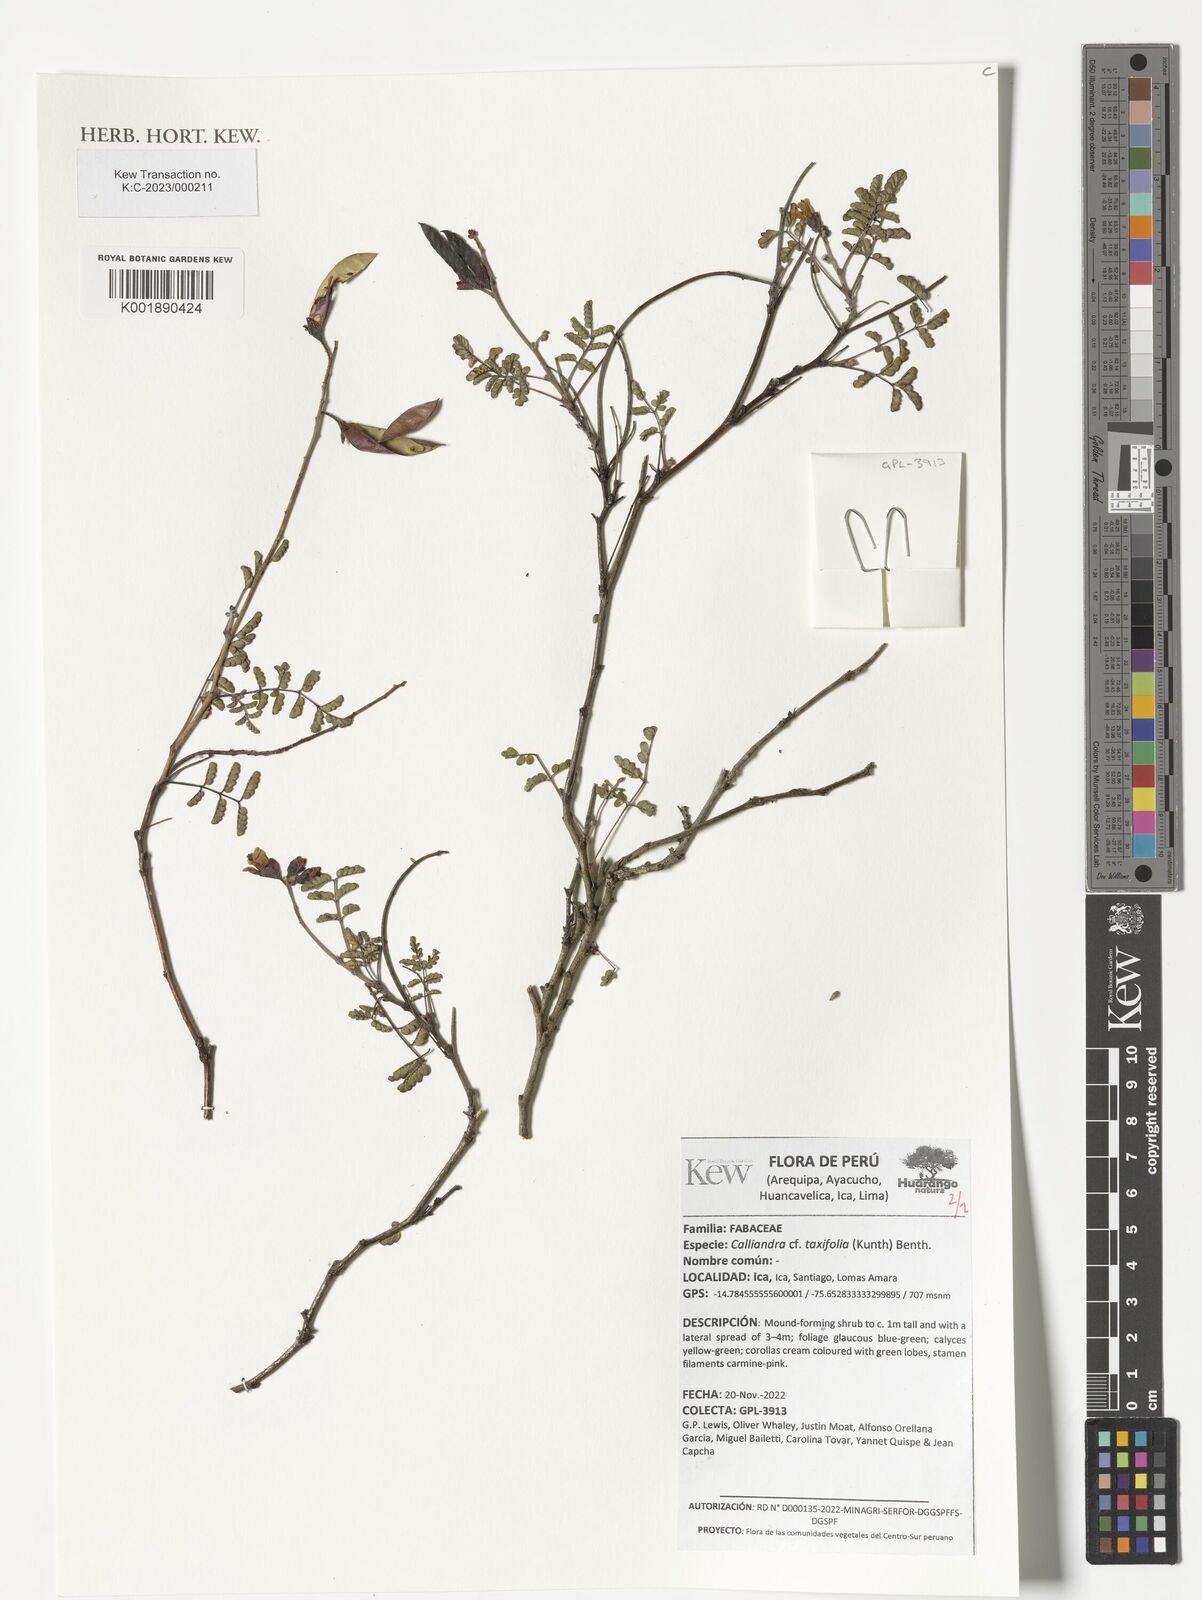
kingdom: Plantae
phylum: Tracheophyta
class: Magnoliopsida
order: Fabales
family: Fabaceae
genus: Calliandra
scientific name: Calliandra taxifolia
